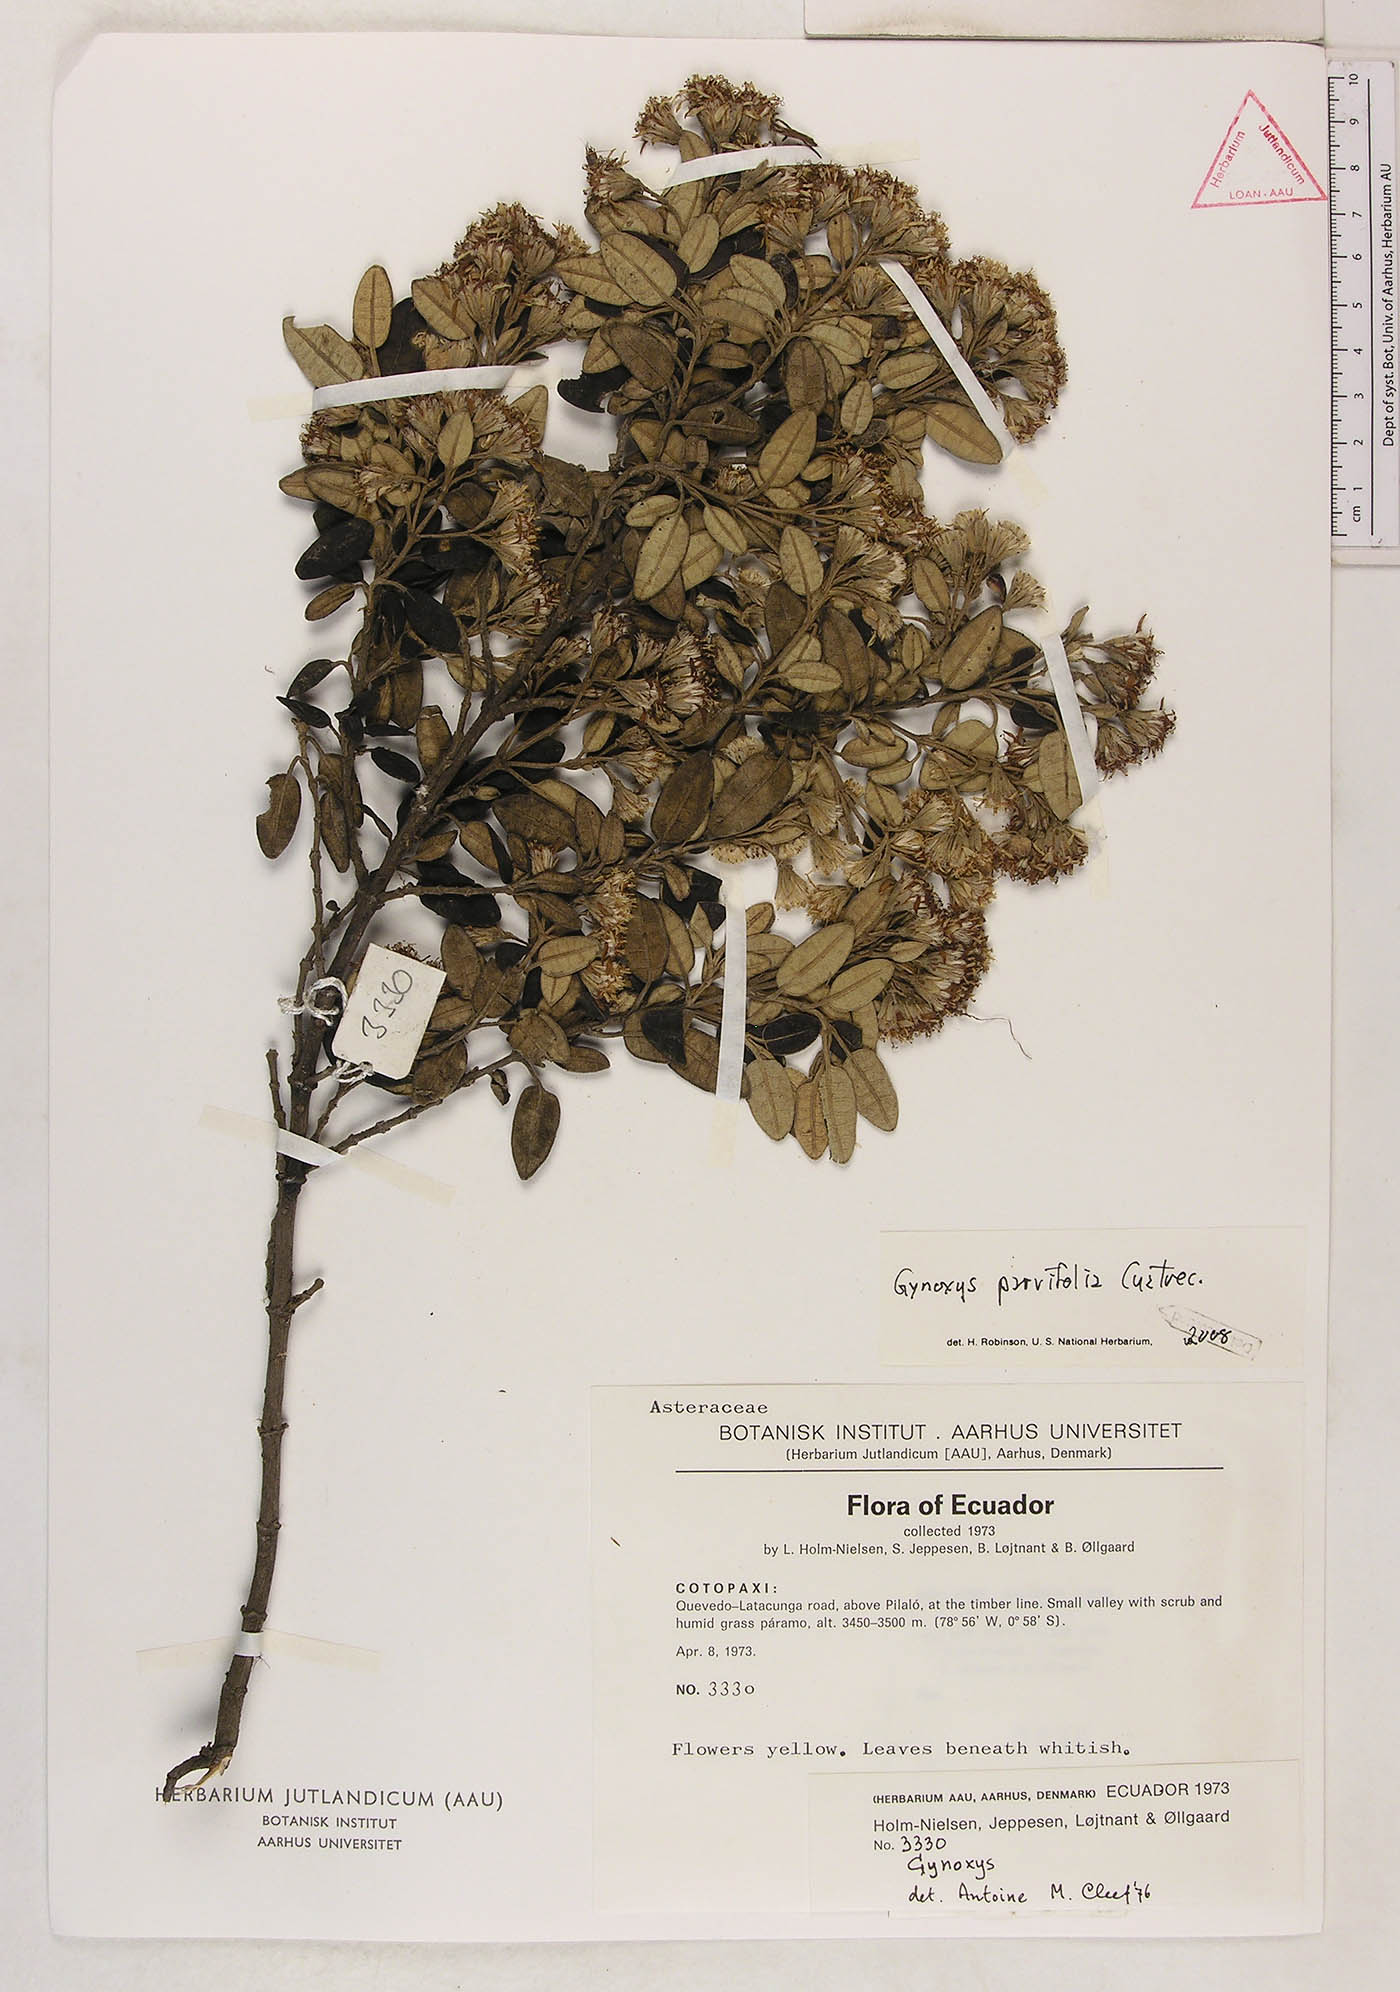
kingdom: Plantae
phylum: Tracheophyta
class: Magnoliopsida
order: Asterales
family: Asteraceae
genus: Gynoxys
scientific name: Gynoxys parvifolia
